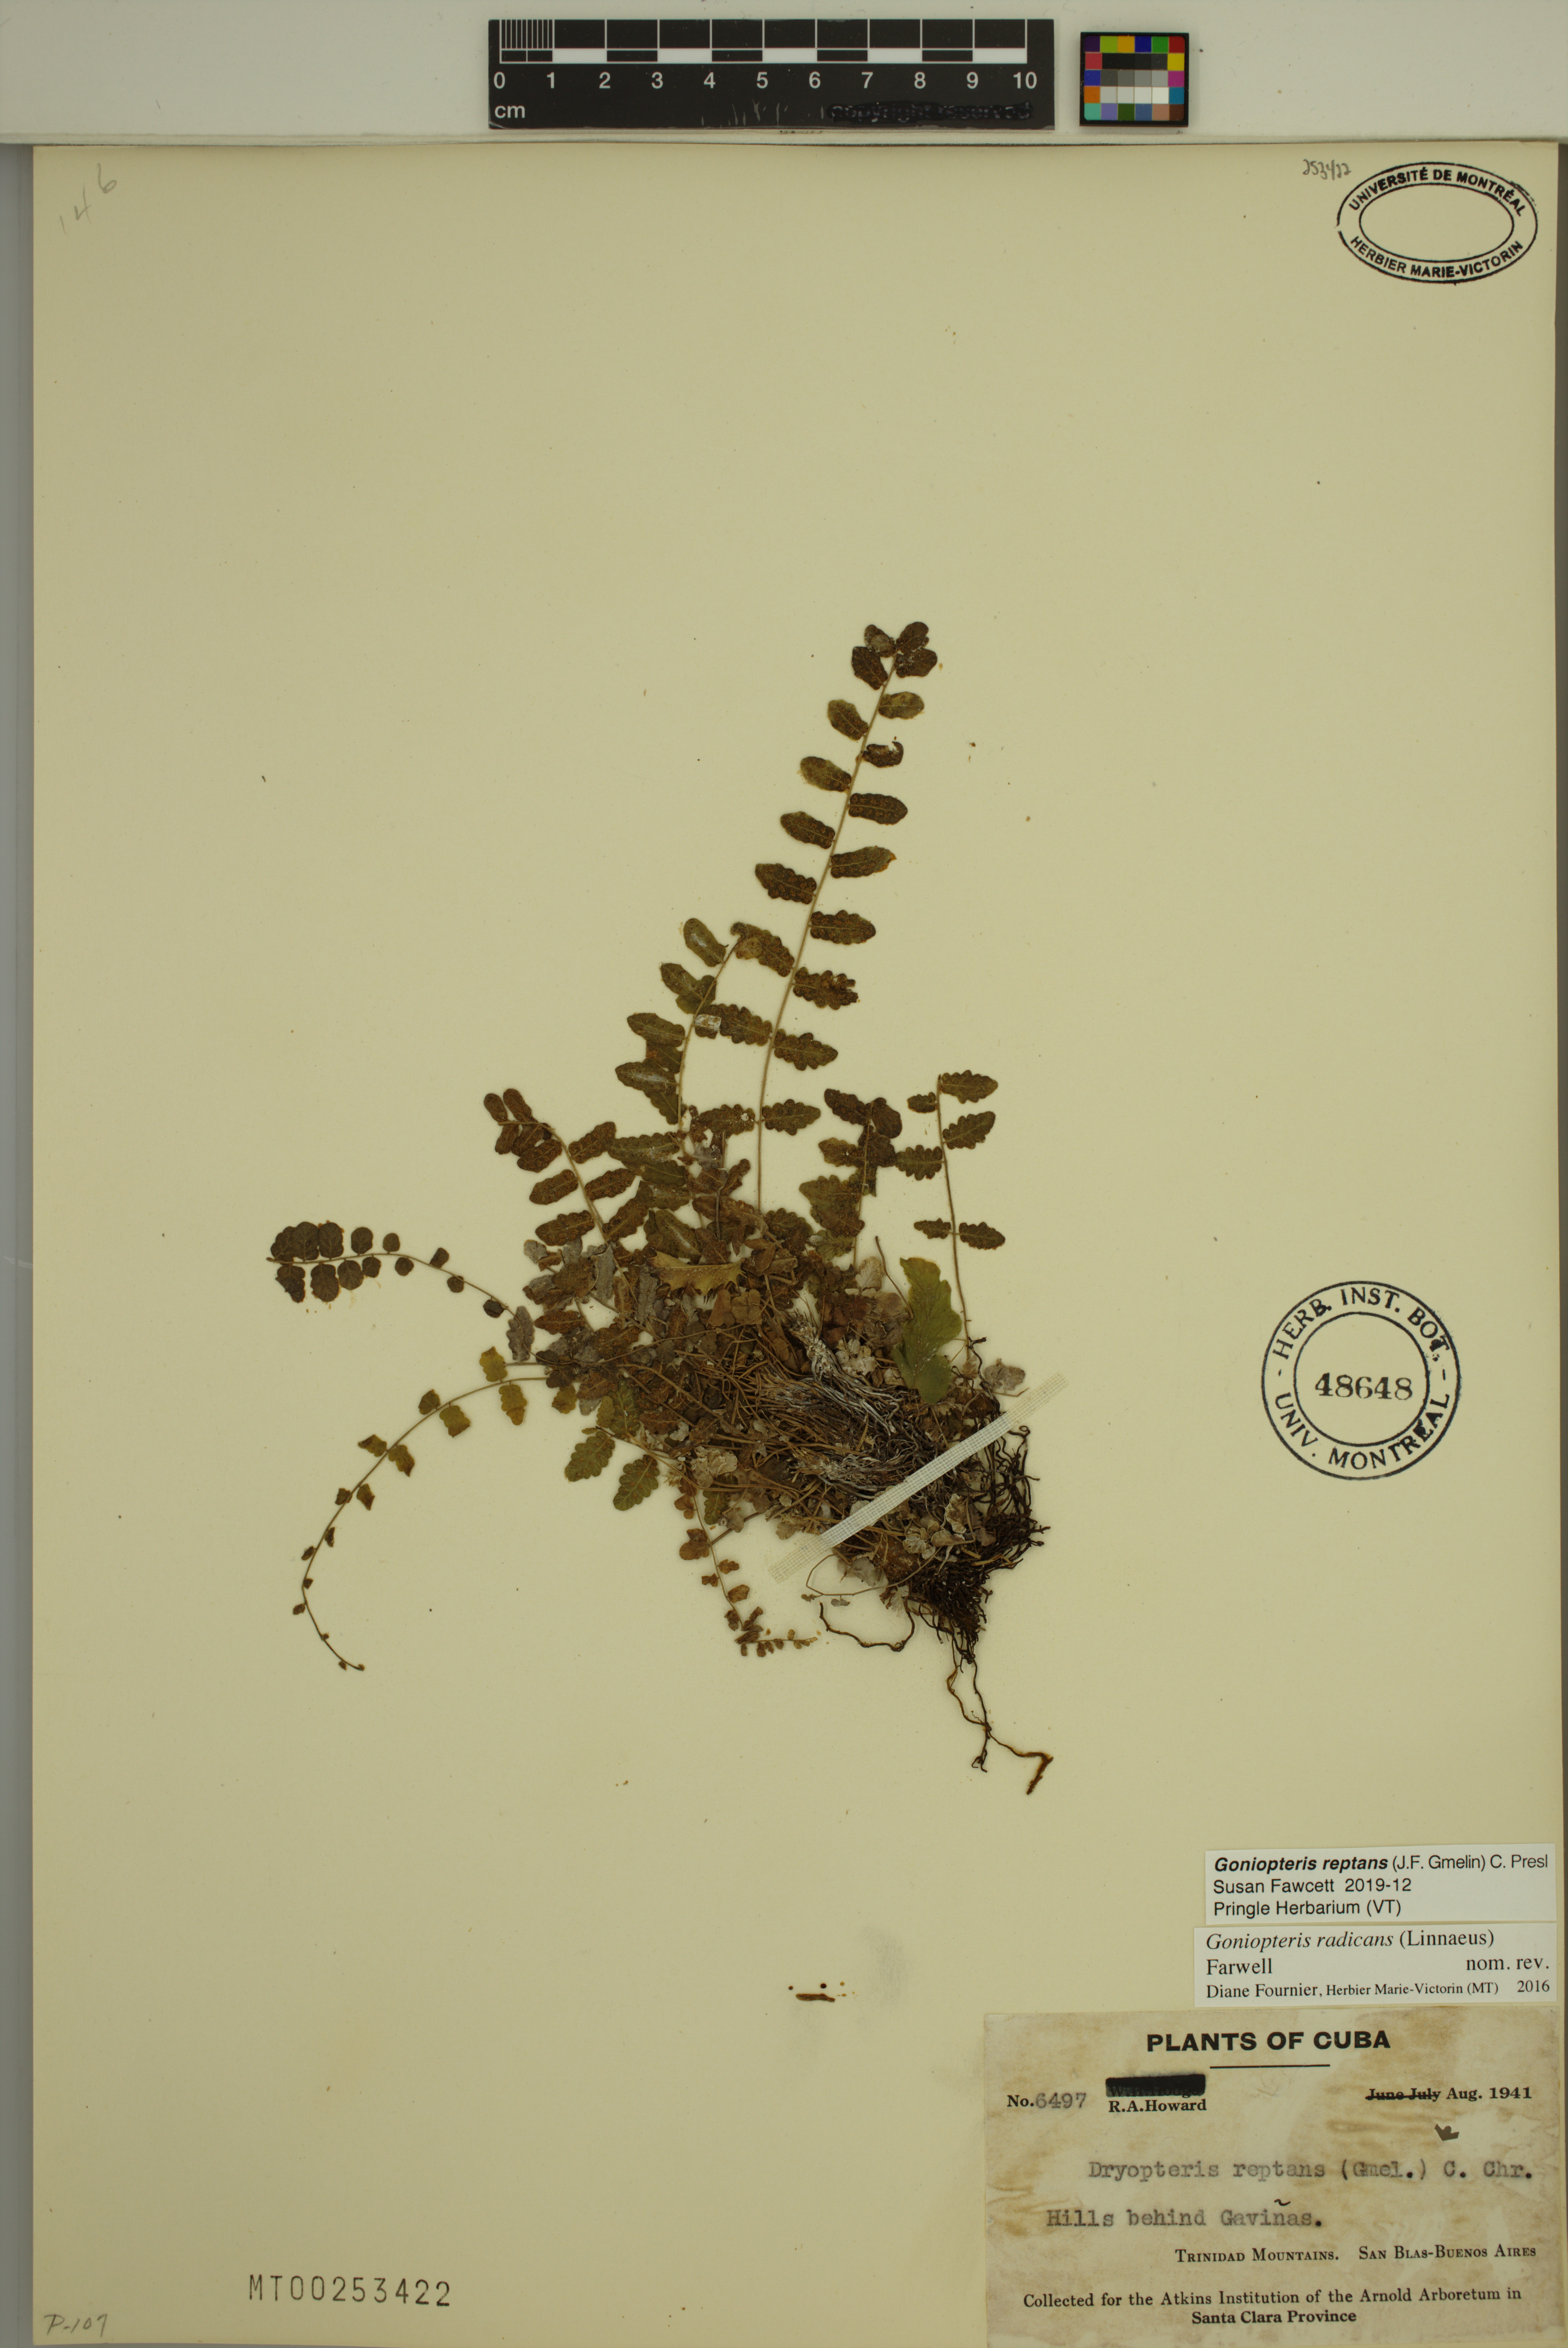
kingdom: Plantae
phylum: Tracheophyta
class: Polypodiopsida
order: Polypodiales
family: Thelypteridaceae
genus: Goniopteris
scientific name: Goniopteris reptans
